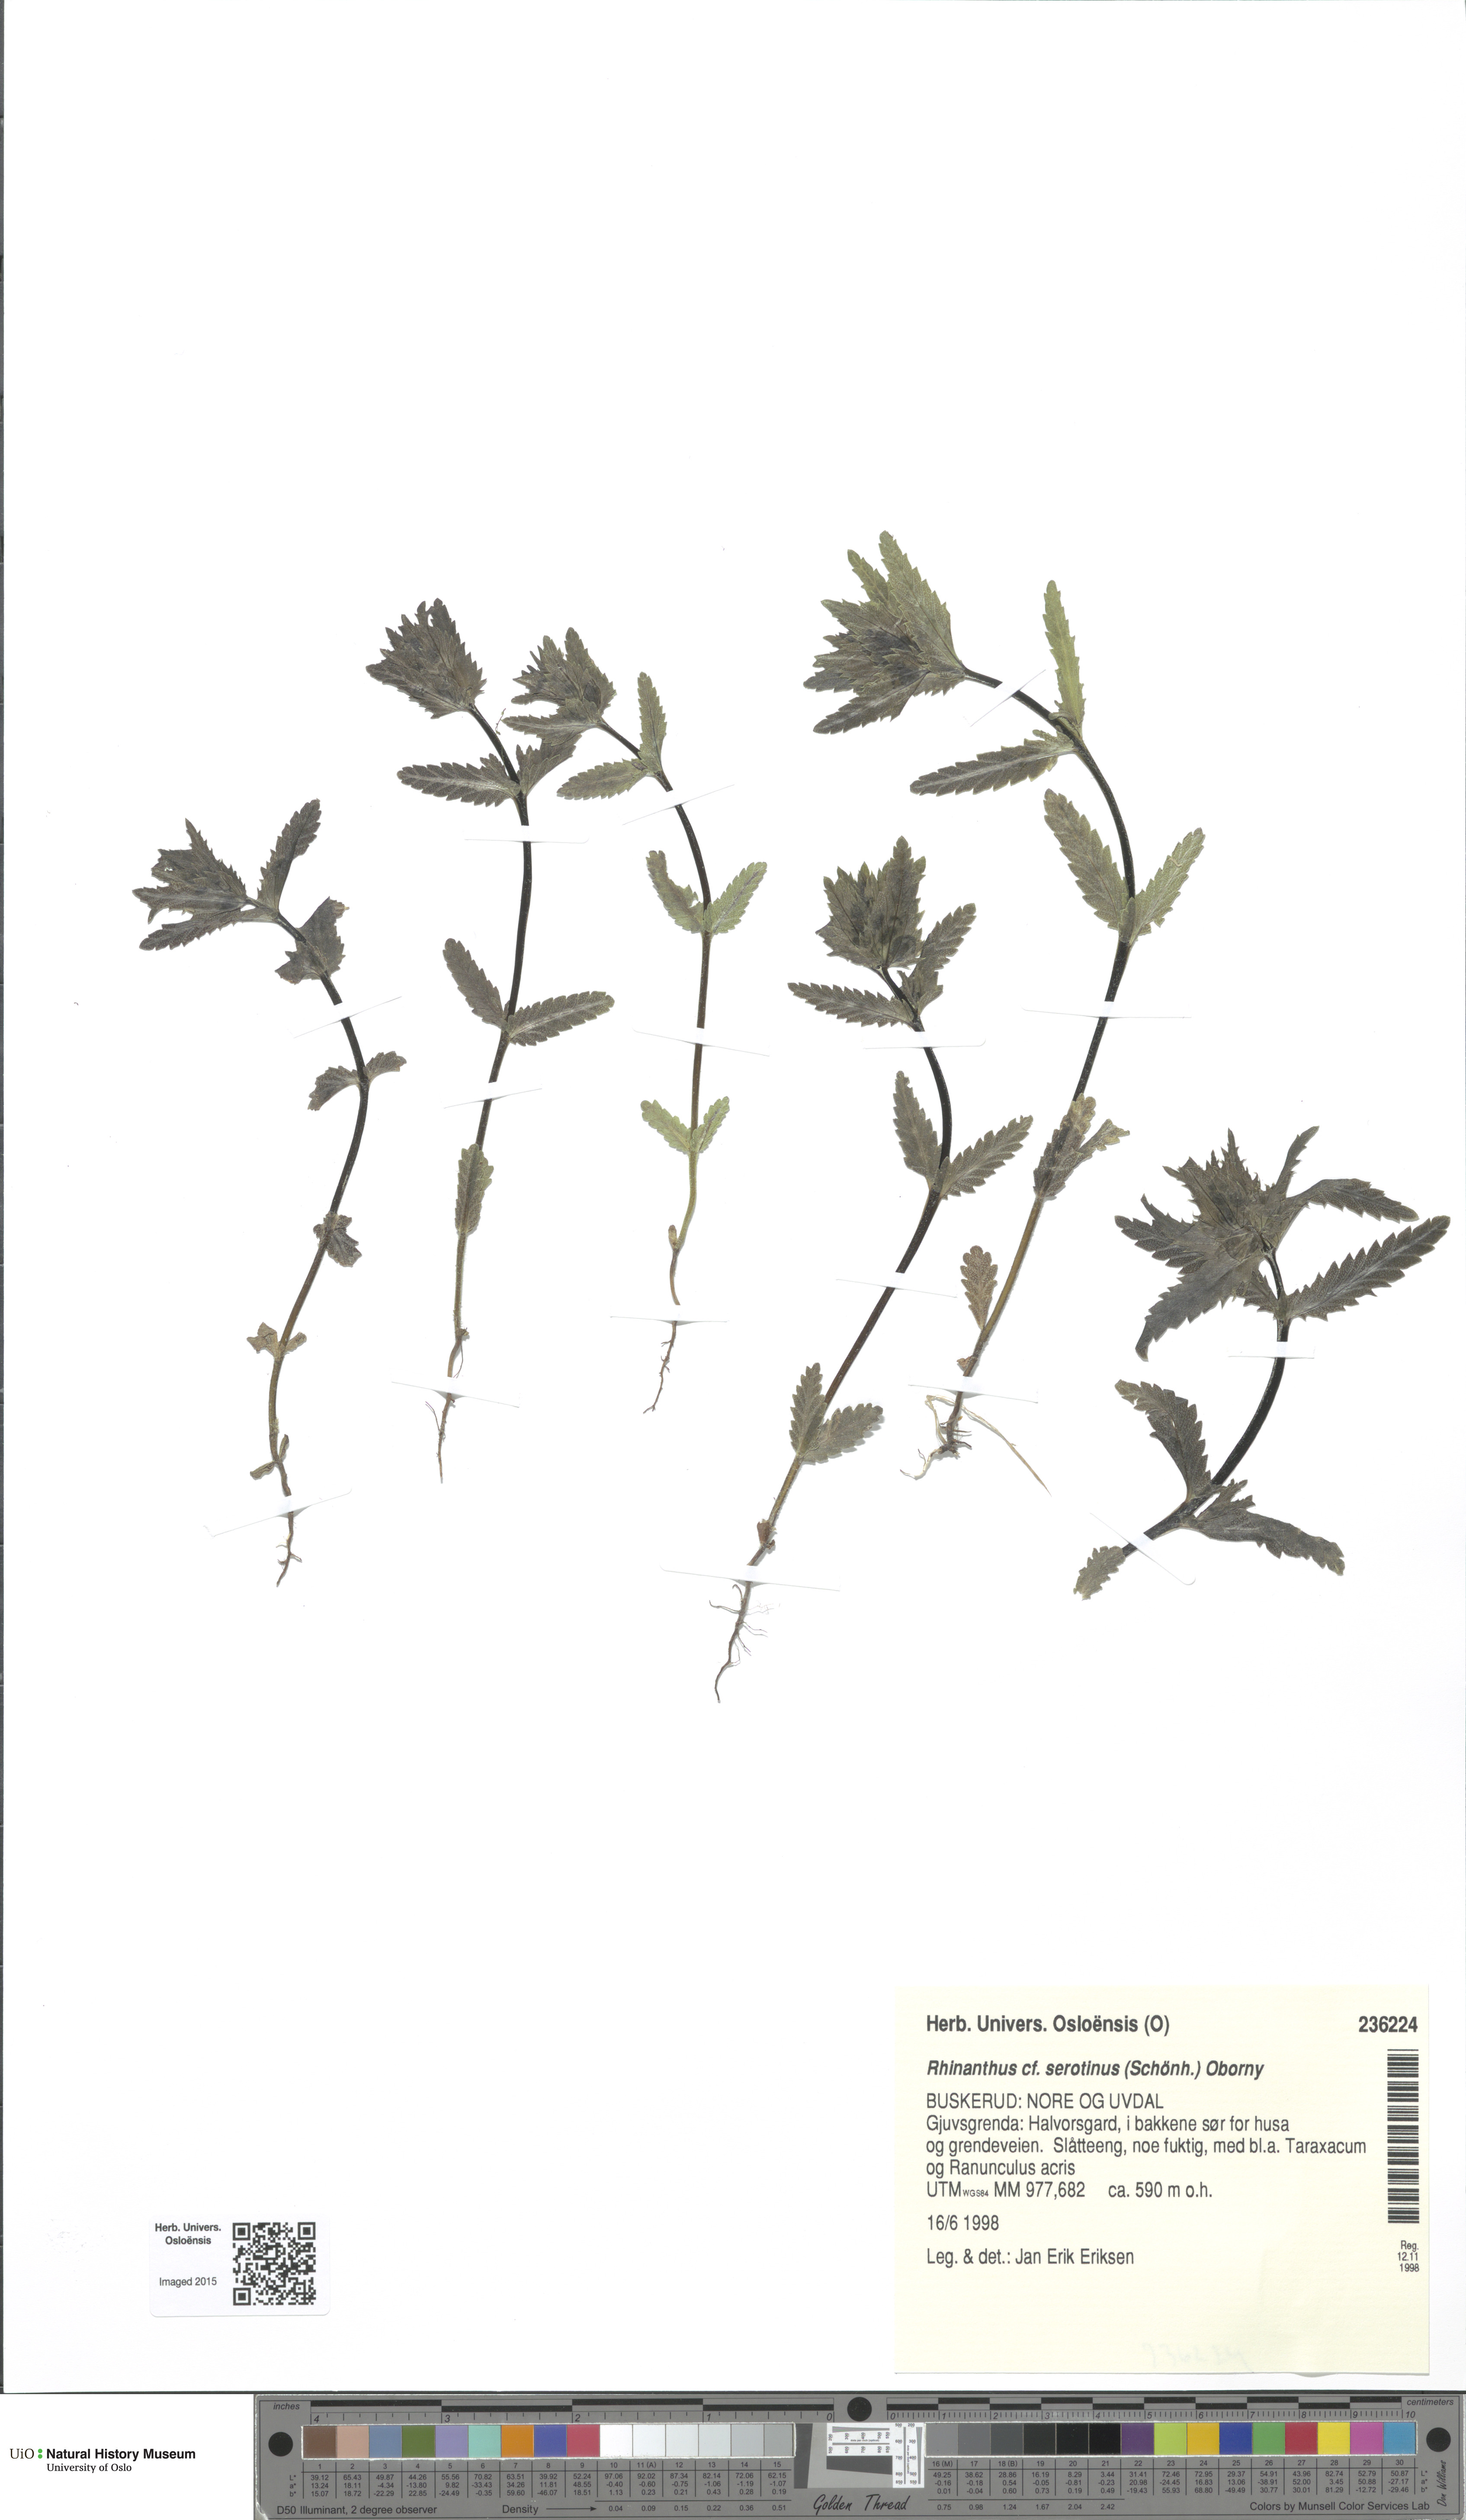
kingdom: Plantae
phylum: Tracheophyta
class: Magnoliopsida
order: Lamiales
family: Orobanchaceae
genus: Rhinanthus
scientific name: Rhinanthus
